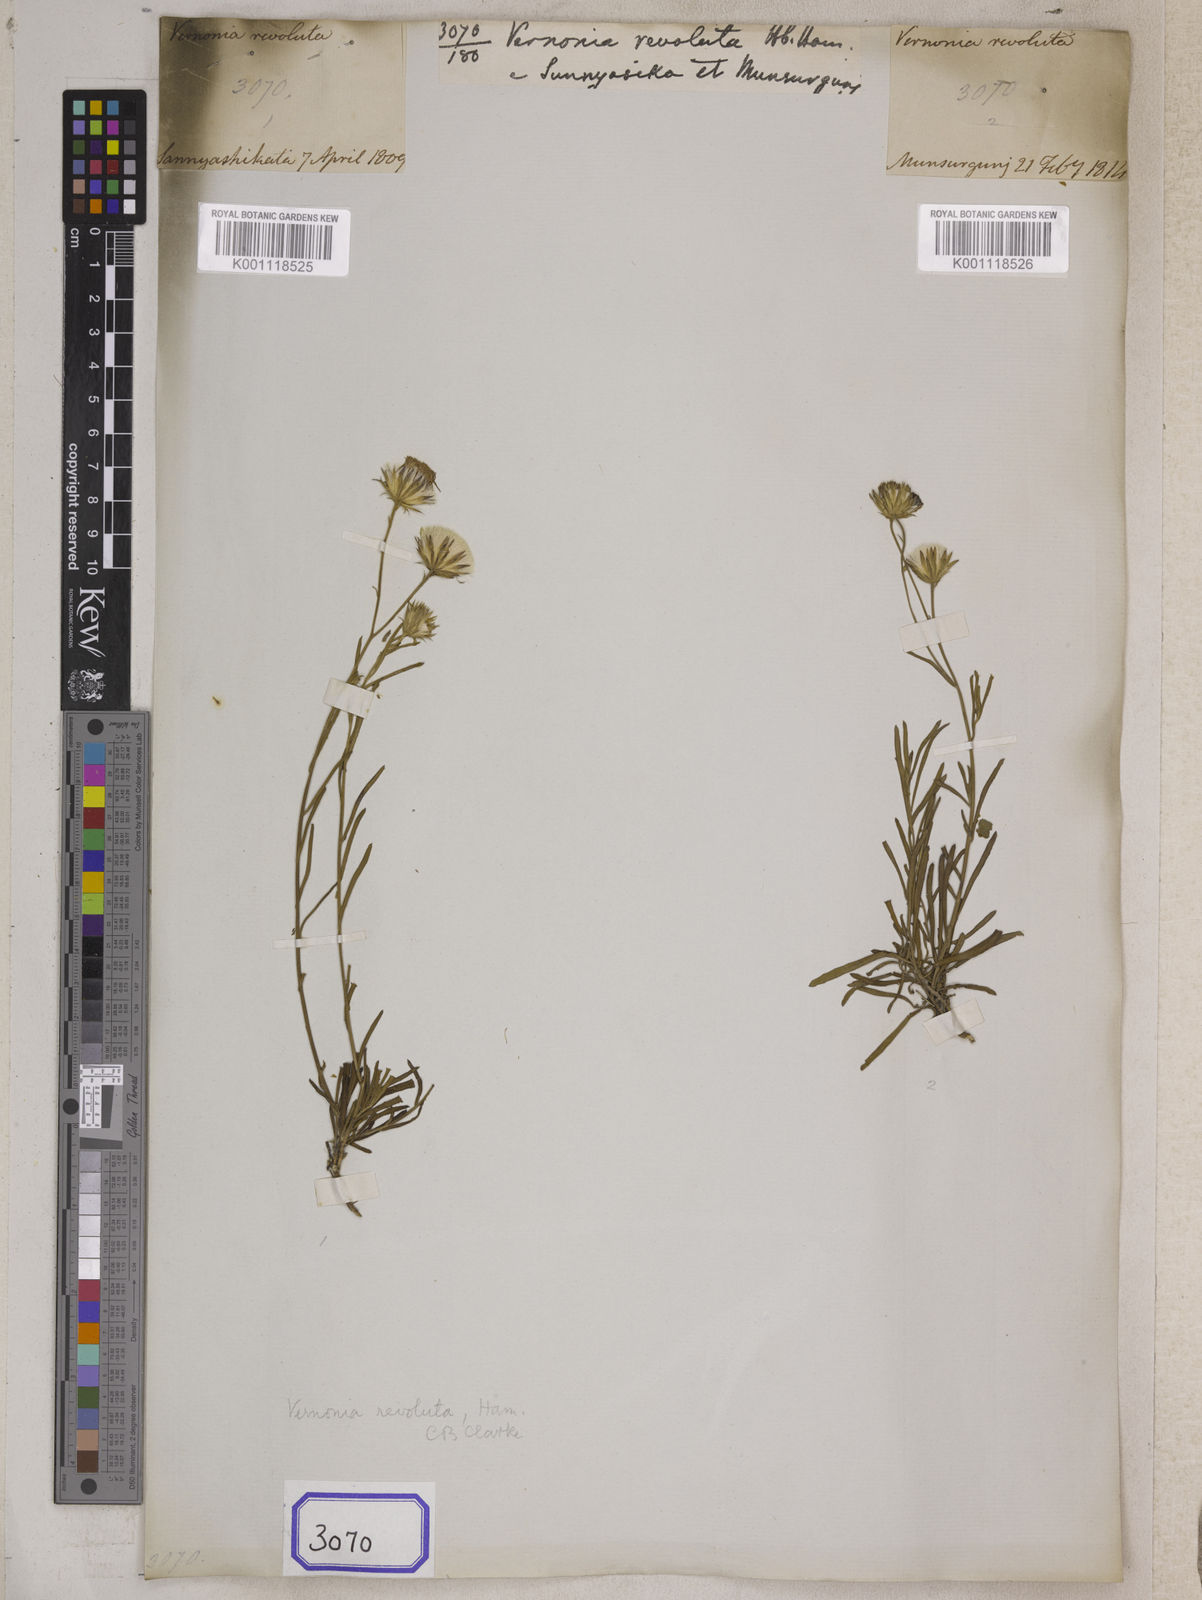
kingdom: Plantae
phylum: Tracheophyta
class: Magnoliopsida
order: Asterales
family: Asteraceae
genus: Vernonia
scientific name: Vernonia revoluta
